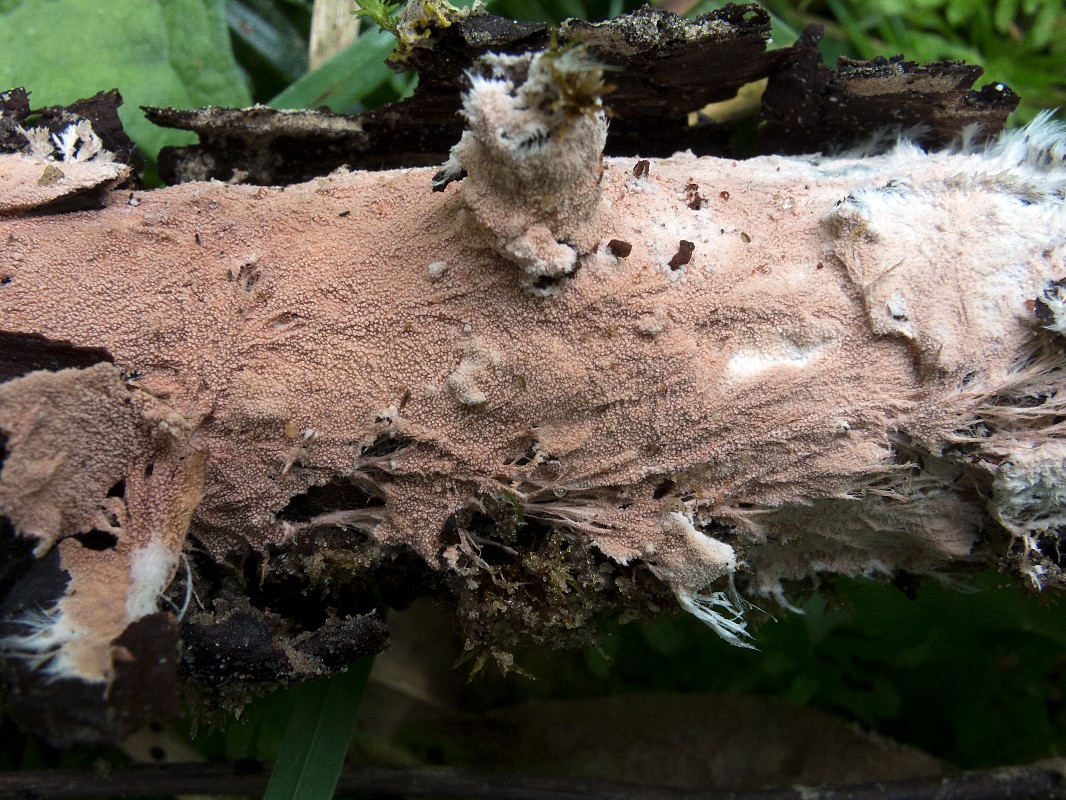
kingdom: Fungi
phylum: Basidiomycota
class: Agaricomycetes
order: Polyporales
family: Steccherinaceae
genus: Steccherinum
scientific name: Steccherinum fimbriatum
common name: trådet skønpig
